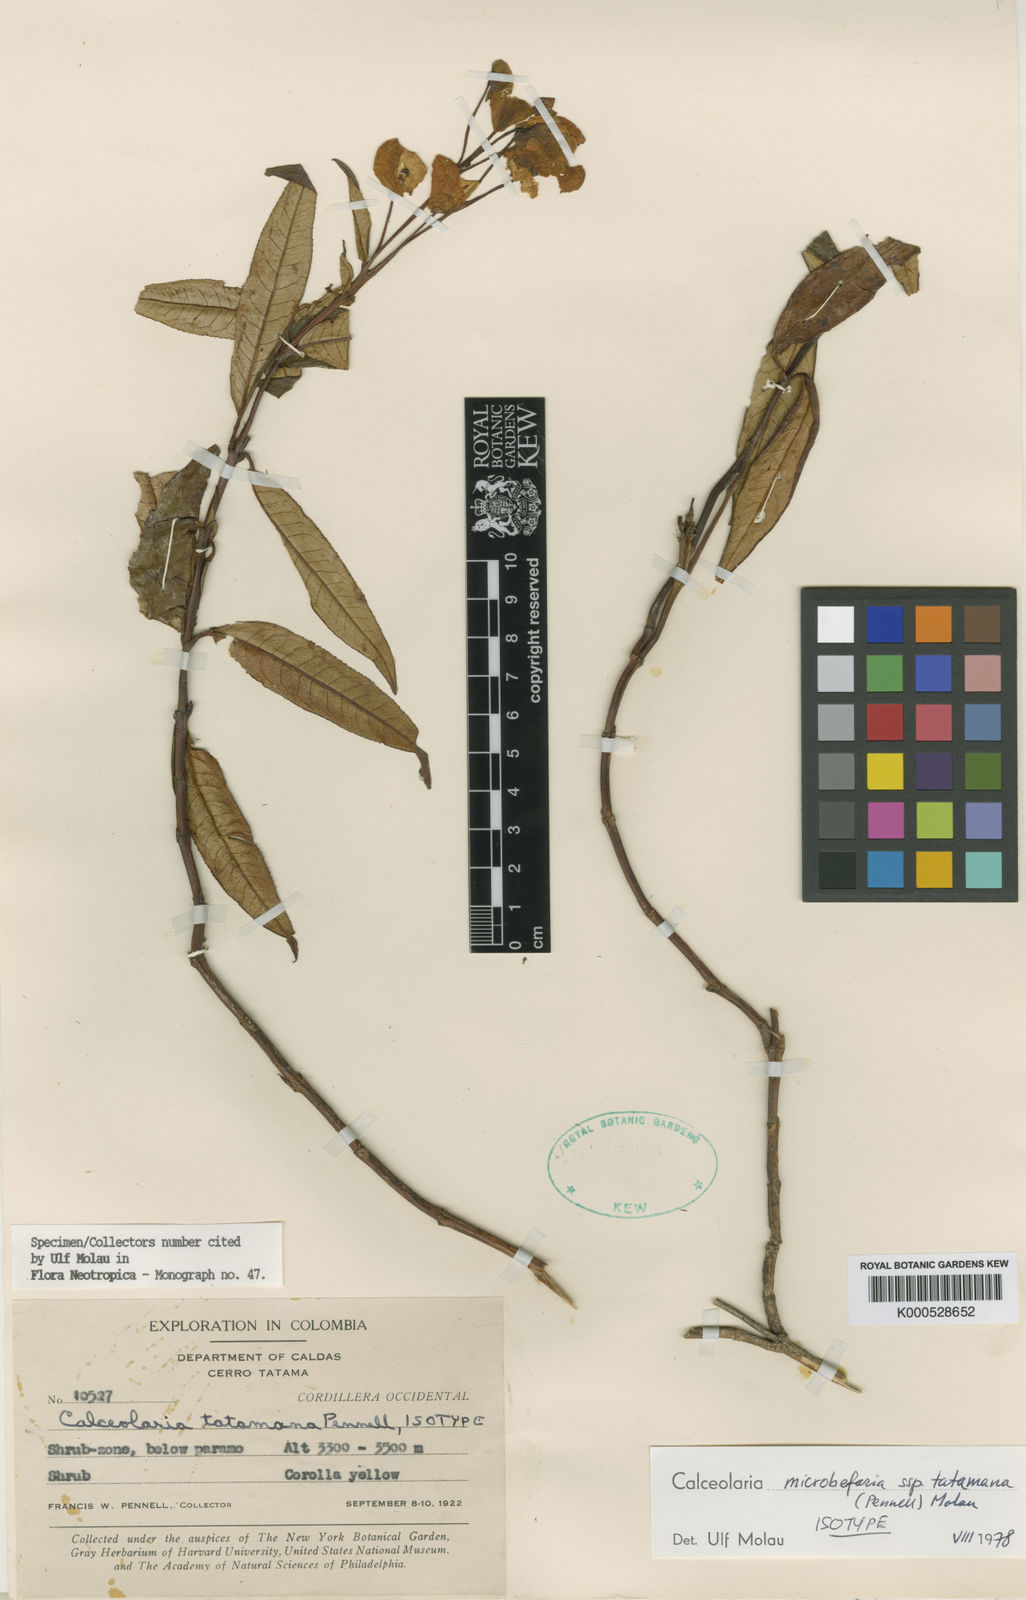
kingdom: Plantae
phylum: Tracheophyta
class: Magnoliopsida
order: Lamiales
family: Calceolariaceae
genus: Calceolaria
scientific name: Calceolaria microbefaria
